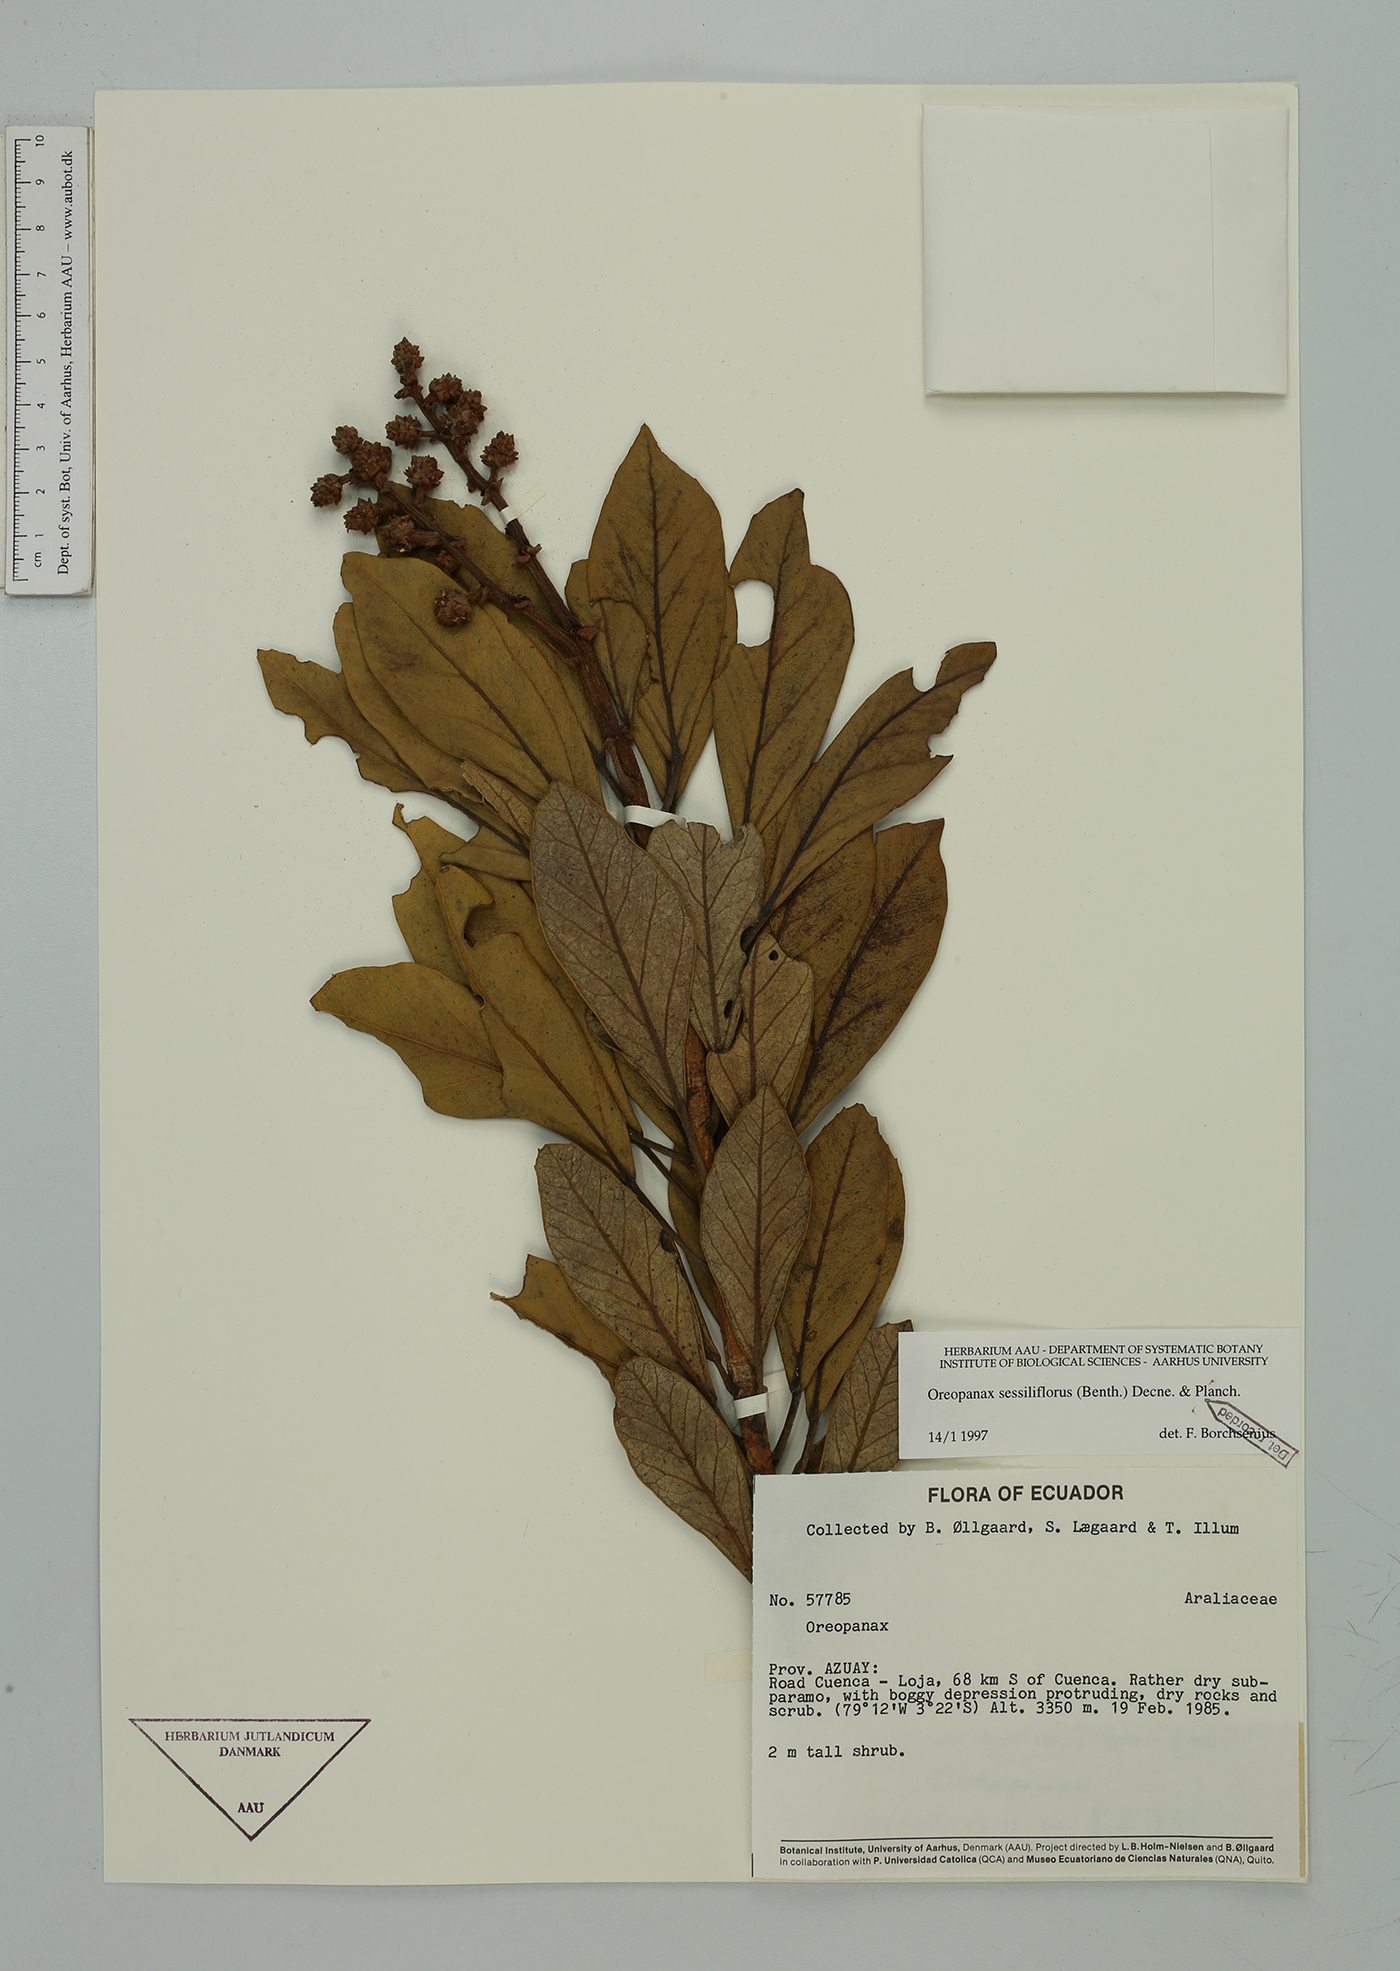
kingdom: Plantae
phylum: Tracheophyta
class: Magnoliopsida
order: Apiales
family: Araliaceae
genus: Oreopanax
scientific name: Oreopanax sessiliflorus
